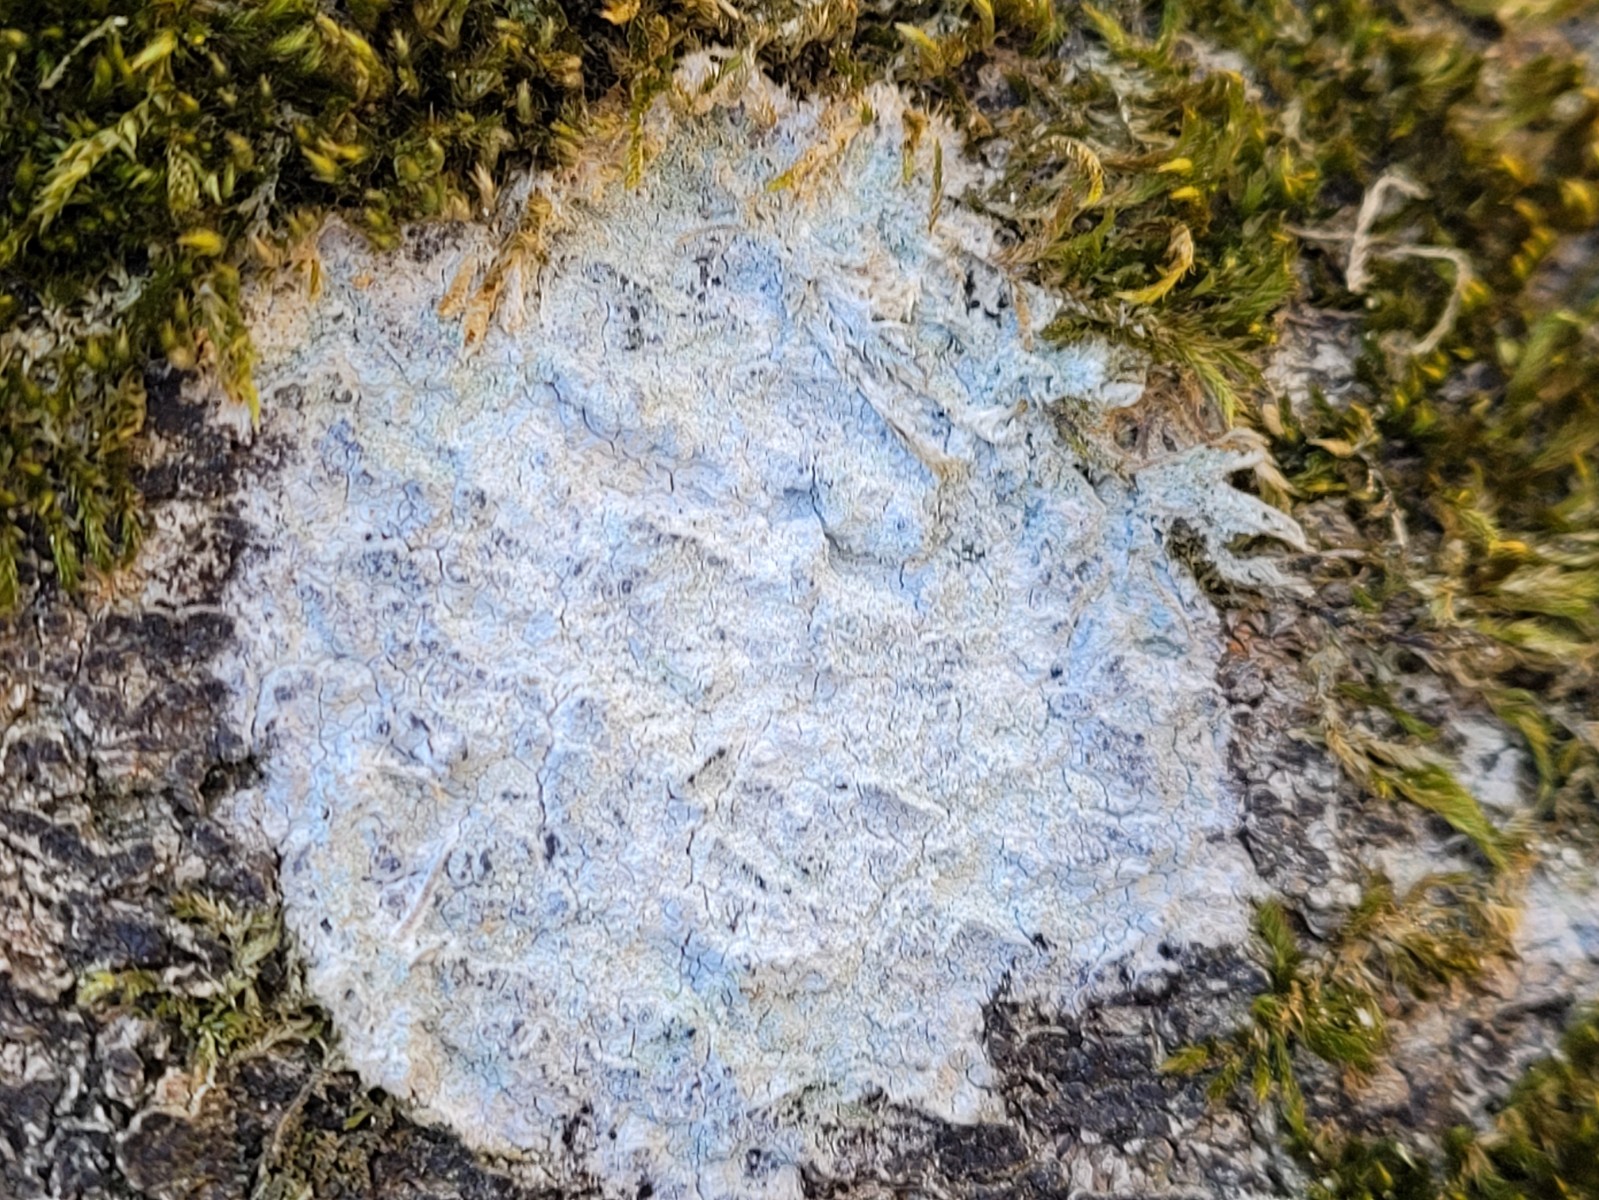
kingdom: Fungi
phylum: Ascomycota
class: Lecanoromycetes
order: Ostropales
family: Phlyctidaceae
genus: Phlyctis
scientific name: Phlyctis argena
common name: almindelig sølvlav
